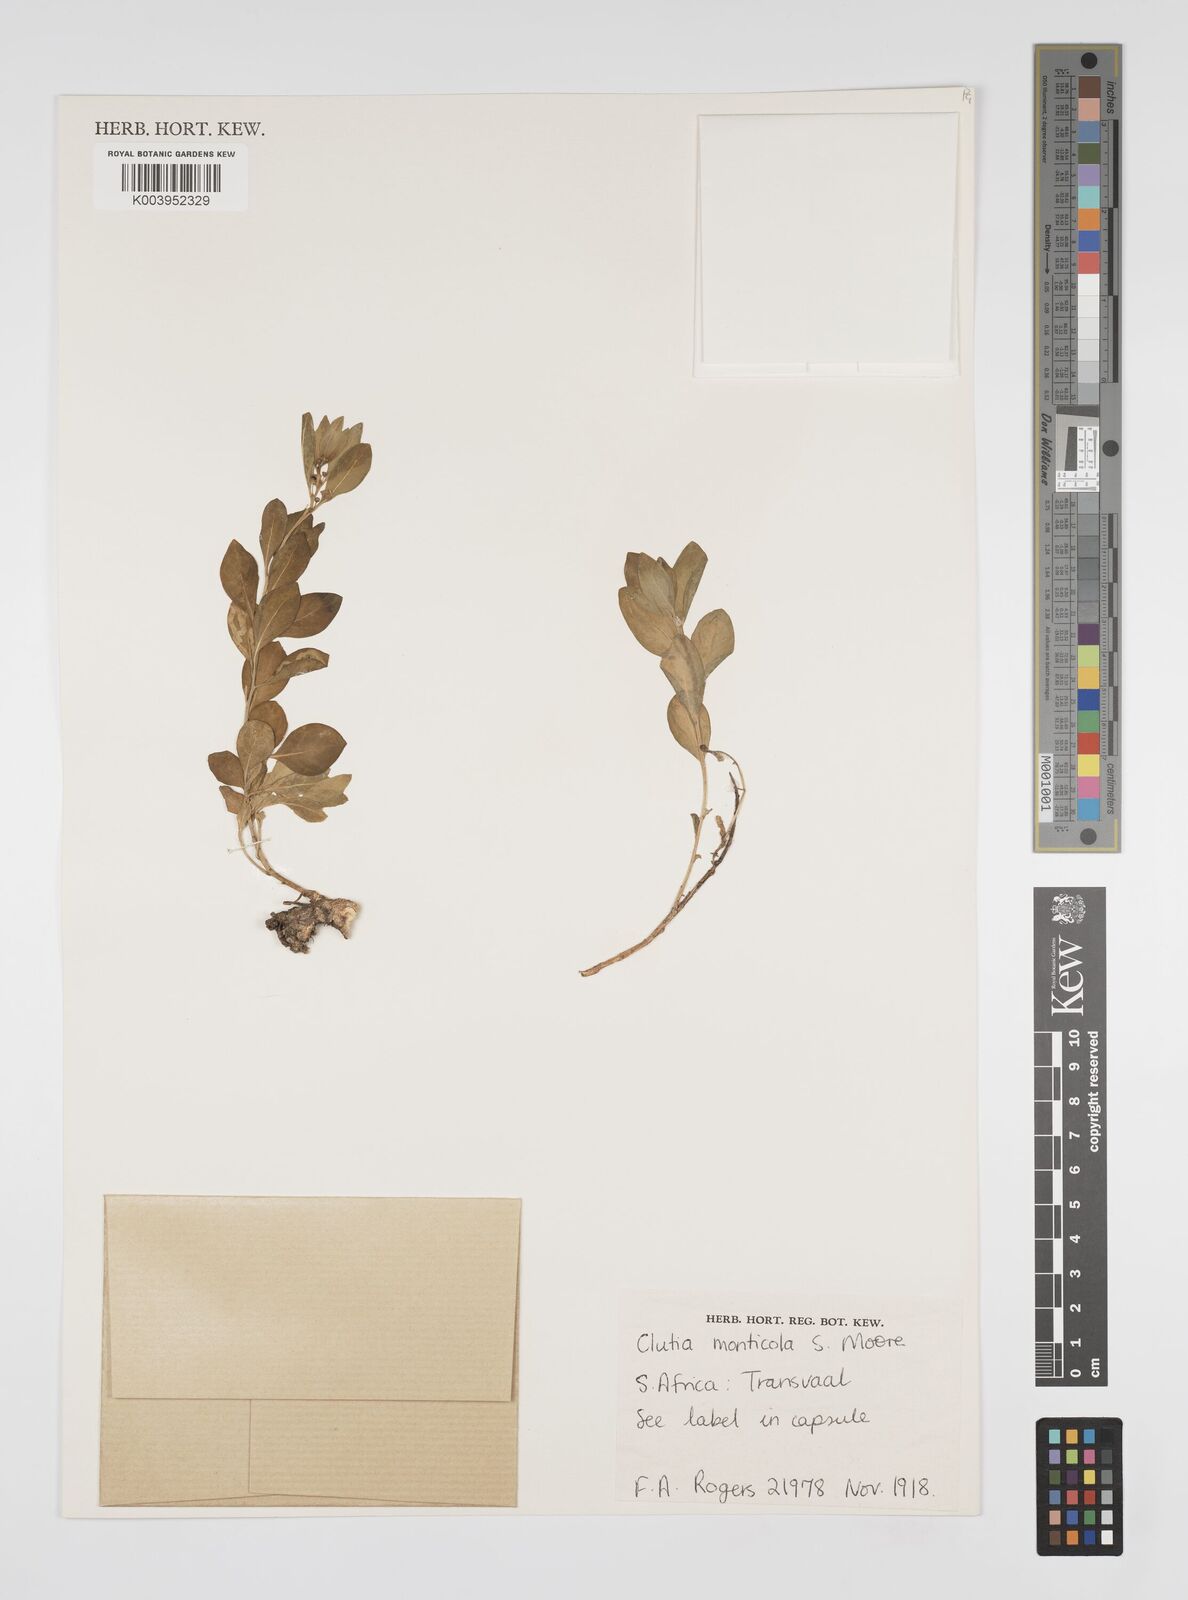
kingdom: Plantae
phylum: Tracheophyta
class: Magnoliopsida
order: Malpighiales
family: Peraceae
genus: Clutia
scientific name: Clutia monticola
